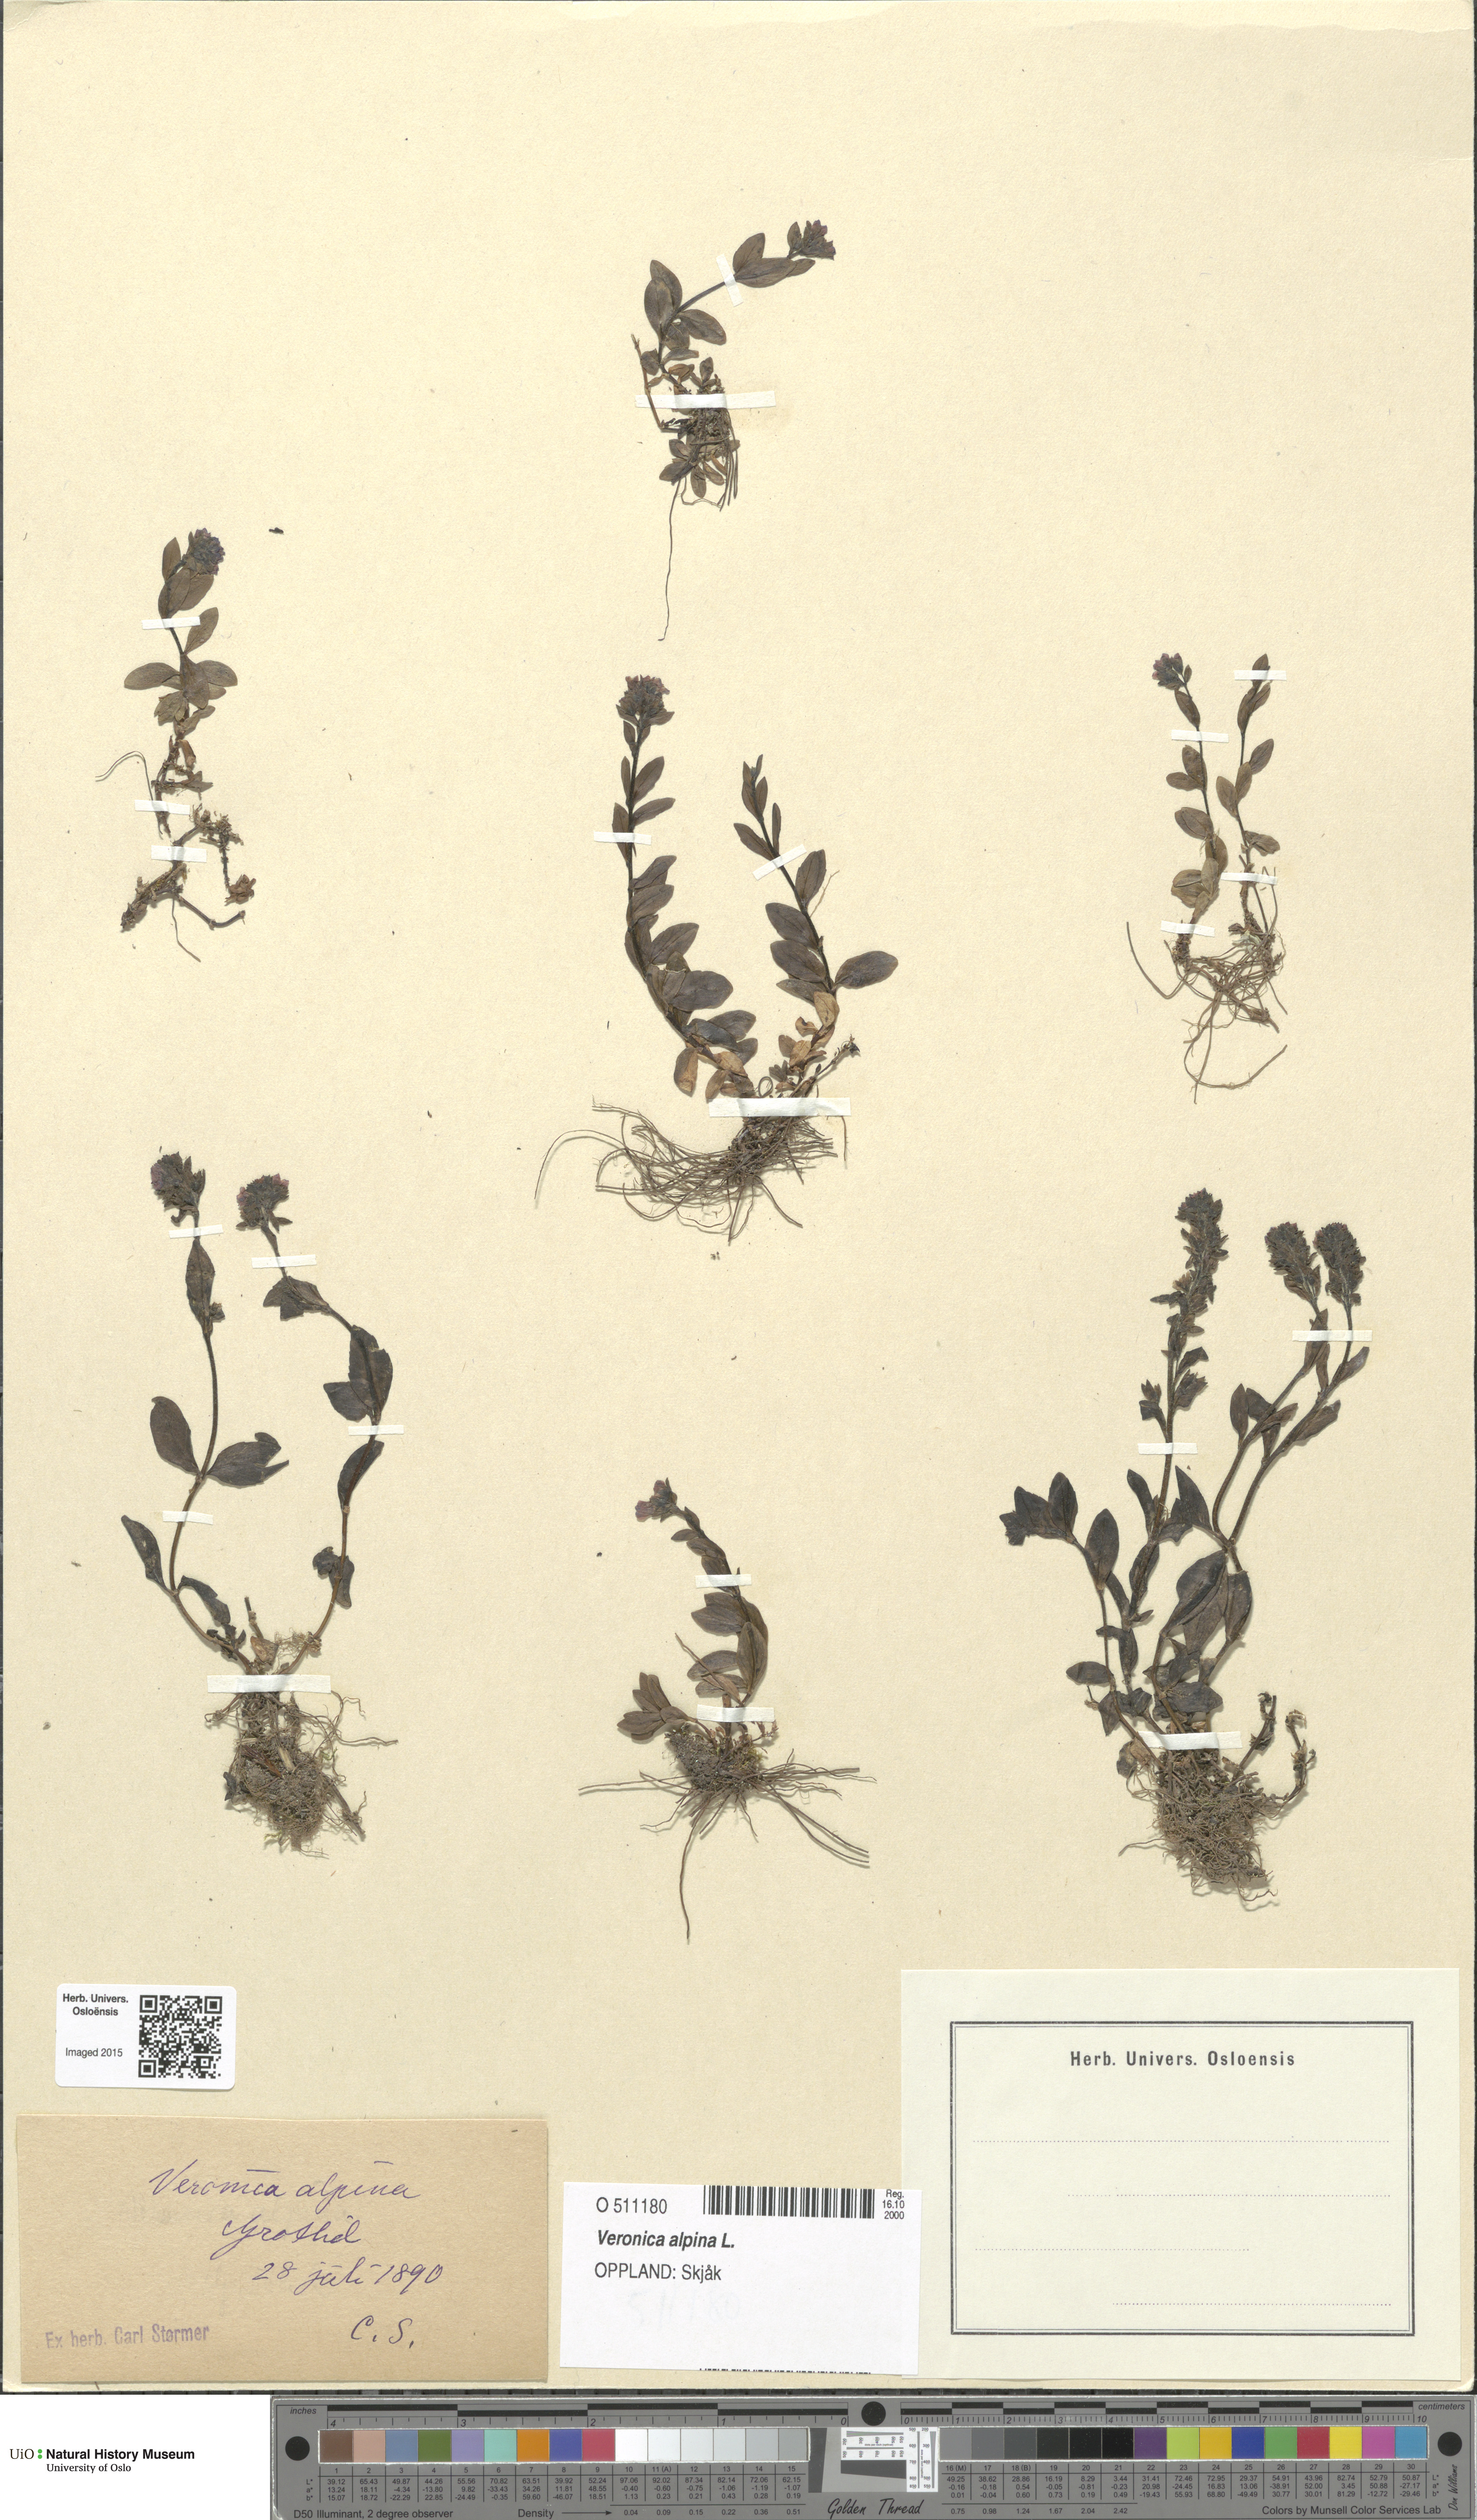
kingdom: Plantae
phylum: Tracheophyta
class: Magnoliopsida
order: Lamiales
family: Plantaginaceae
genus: Veronica
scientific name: Veronica alpina
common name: Alpine speedwell
